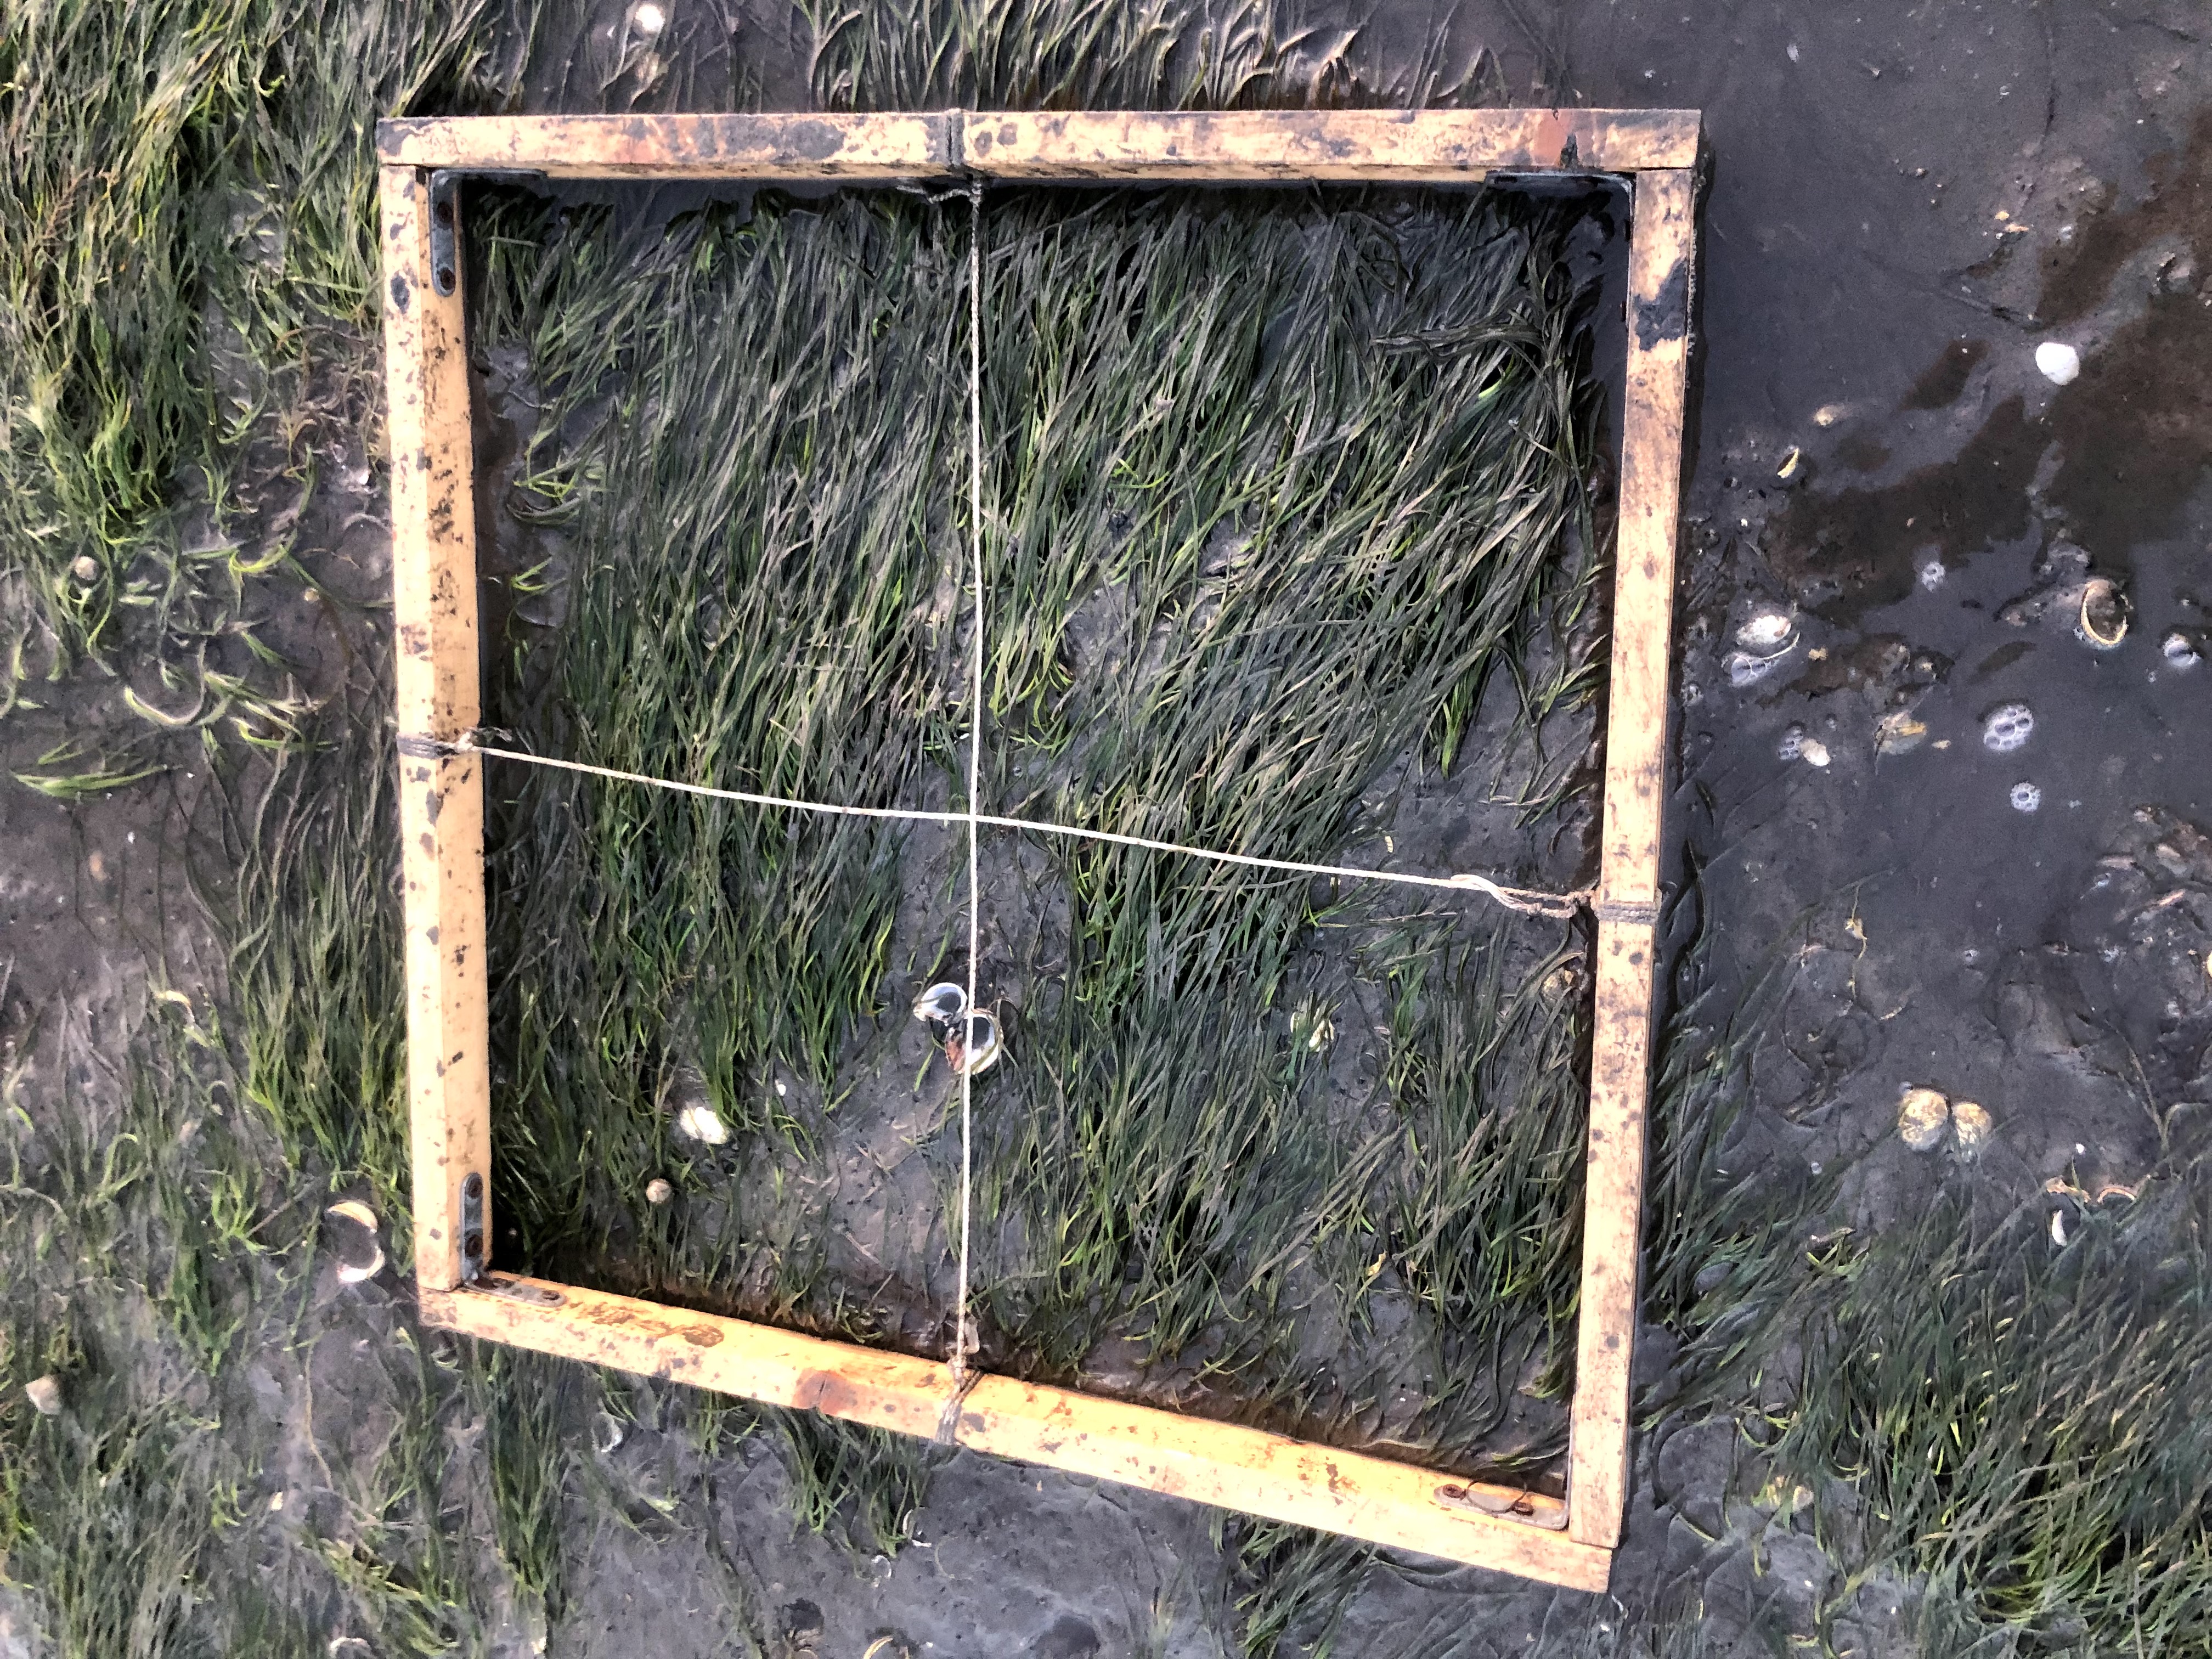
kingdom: Plantae
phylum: Tracheophyta
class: Liliopsida
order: Alismatales
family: Zosteraceae
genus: Zostera
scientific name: Zostera noltii
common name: Dwarf eelgrass
